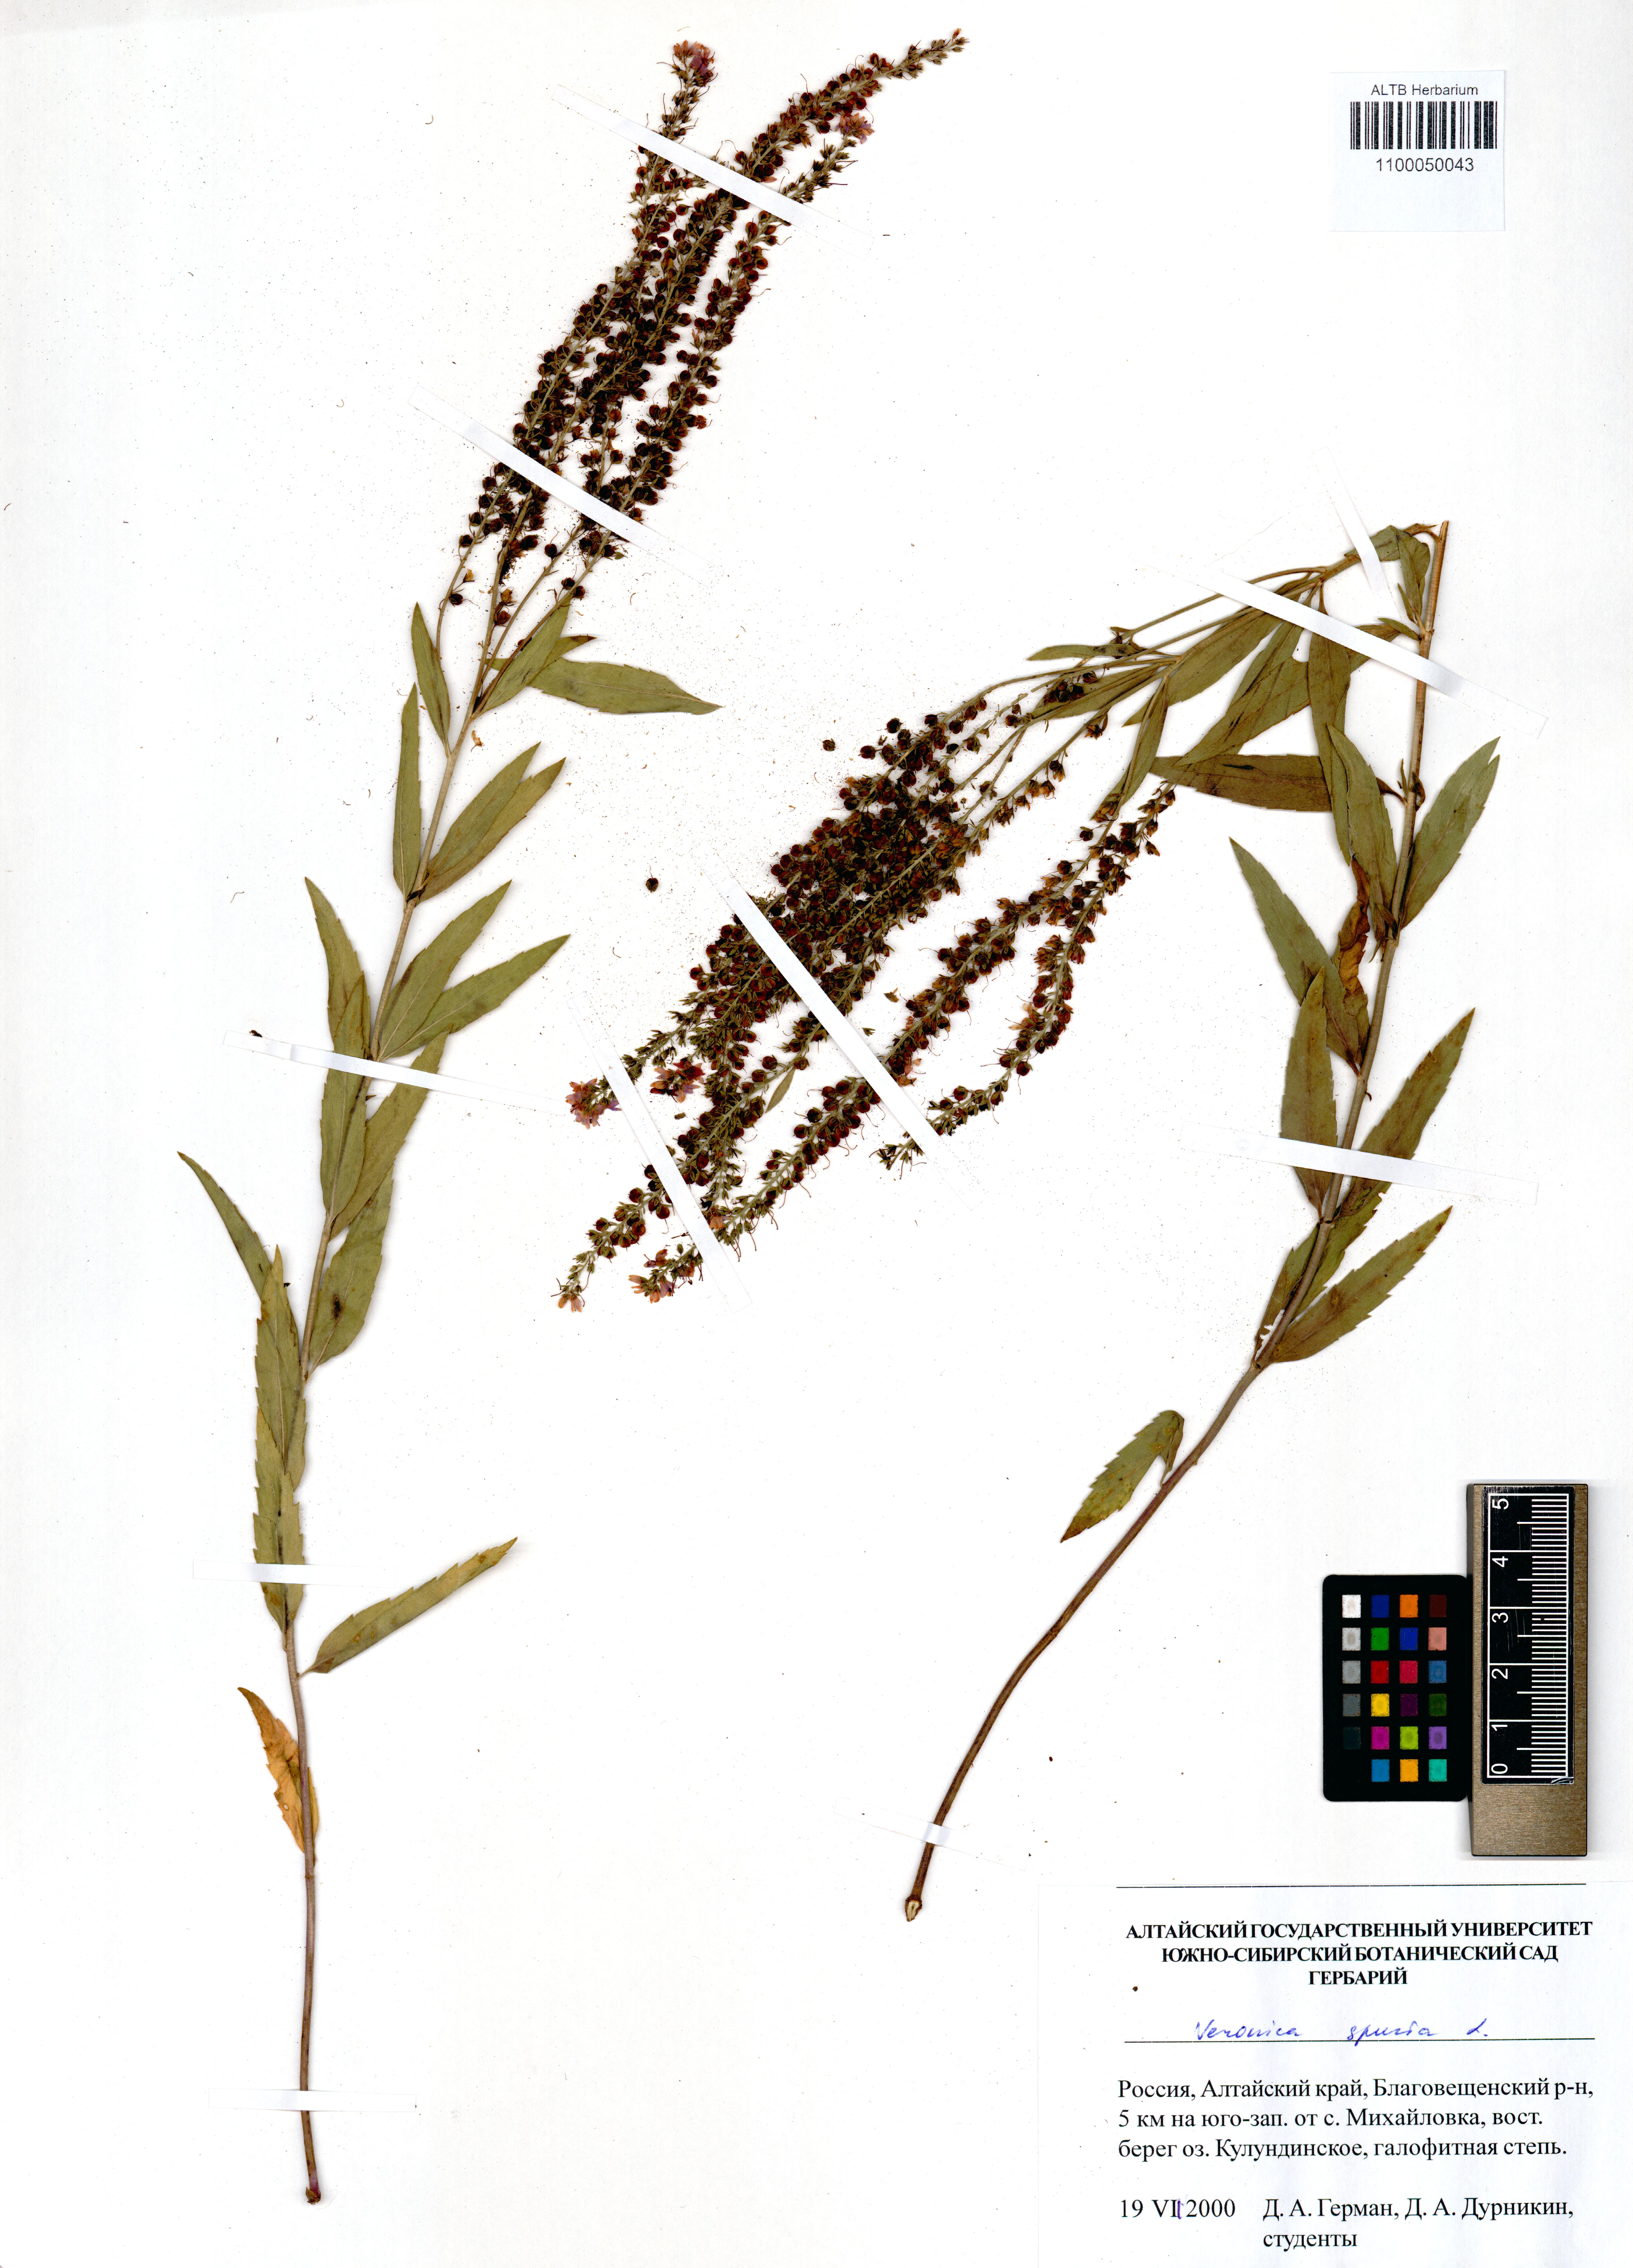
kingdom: Plantae
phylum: Tracheophyta
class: Magnoliopsida
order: Lamiales
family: Plantaginaceae
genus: Veronica
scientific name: Veronica spuria
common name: Bastard speedwell
